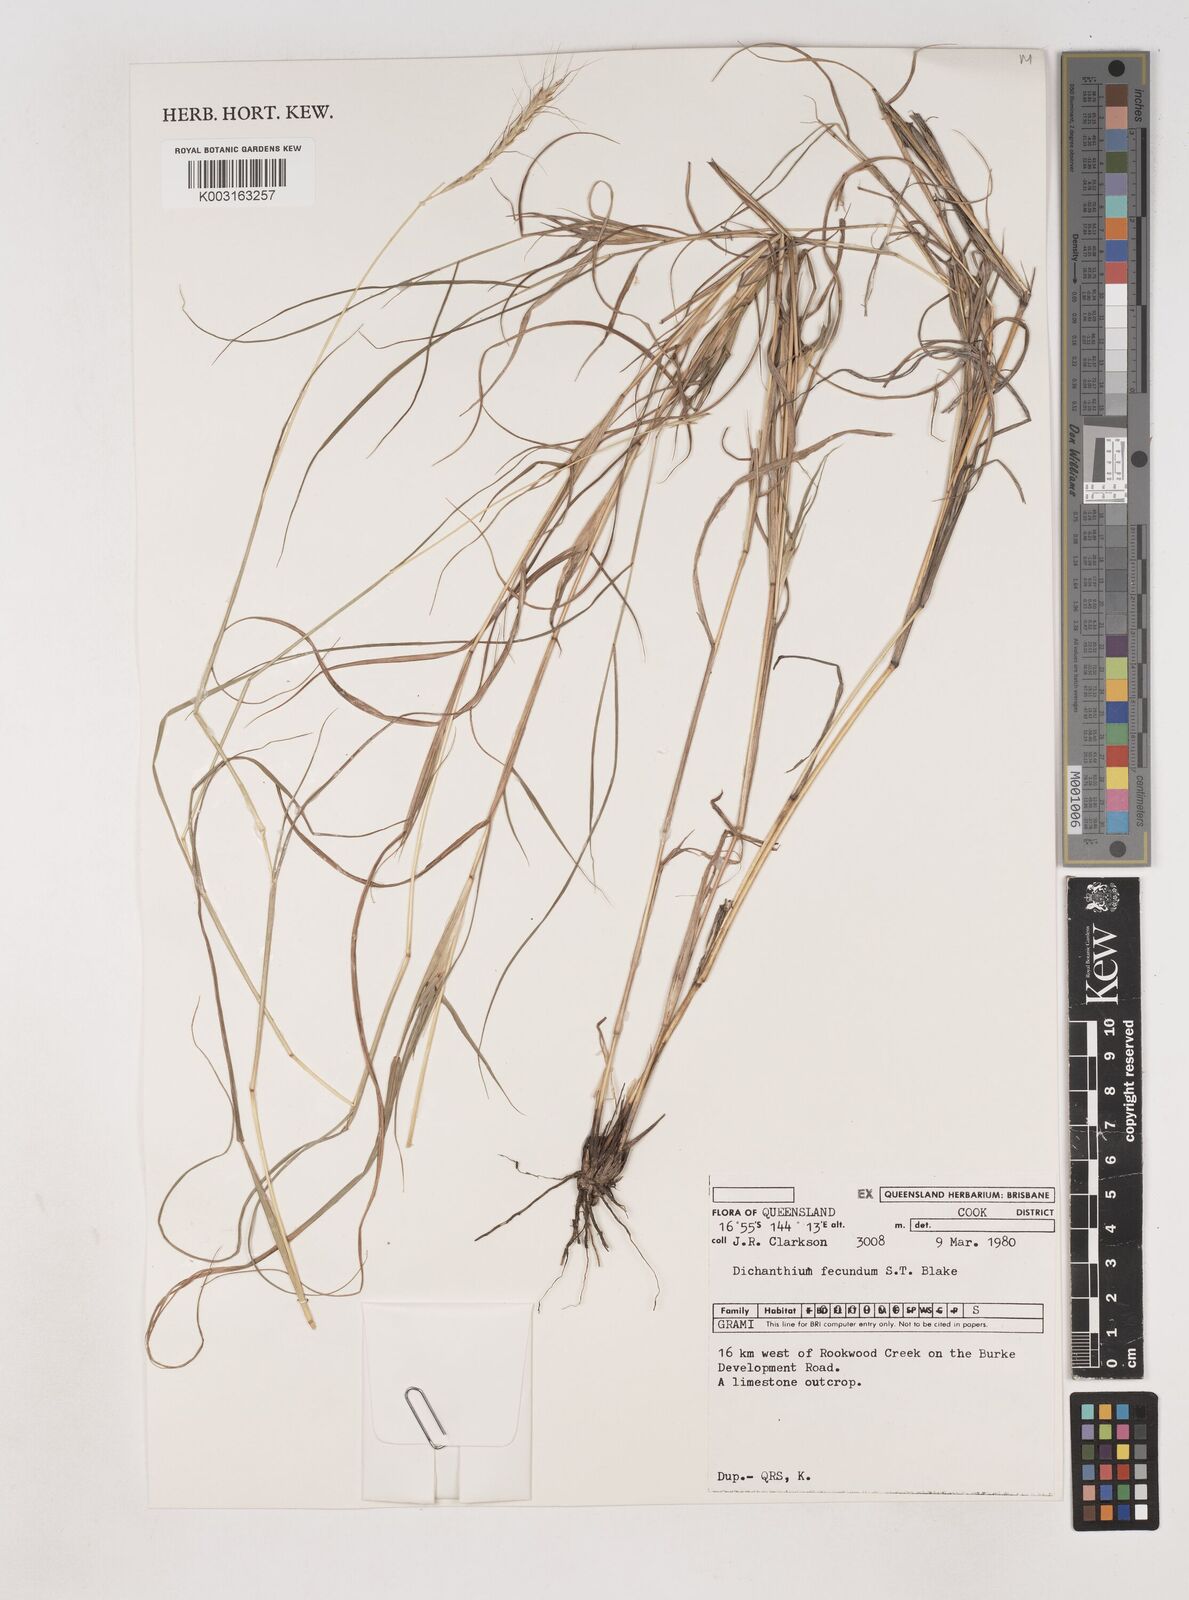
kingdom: Plantae
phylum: Tracheophyta
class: Liliopsida
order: Poales
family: Poaceae
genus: Dichanthium
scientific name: Dichanthium fecundum
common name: Bundle-bundle
